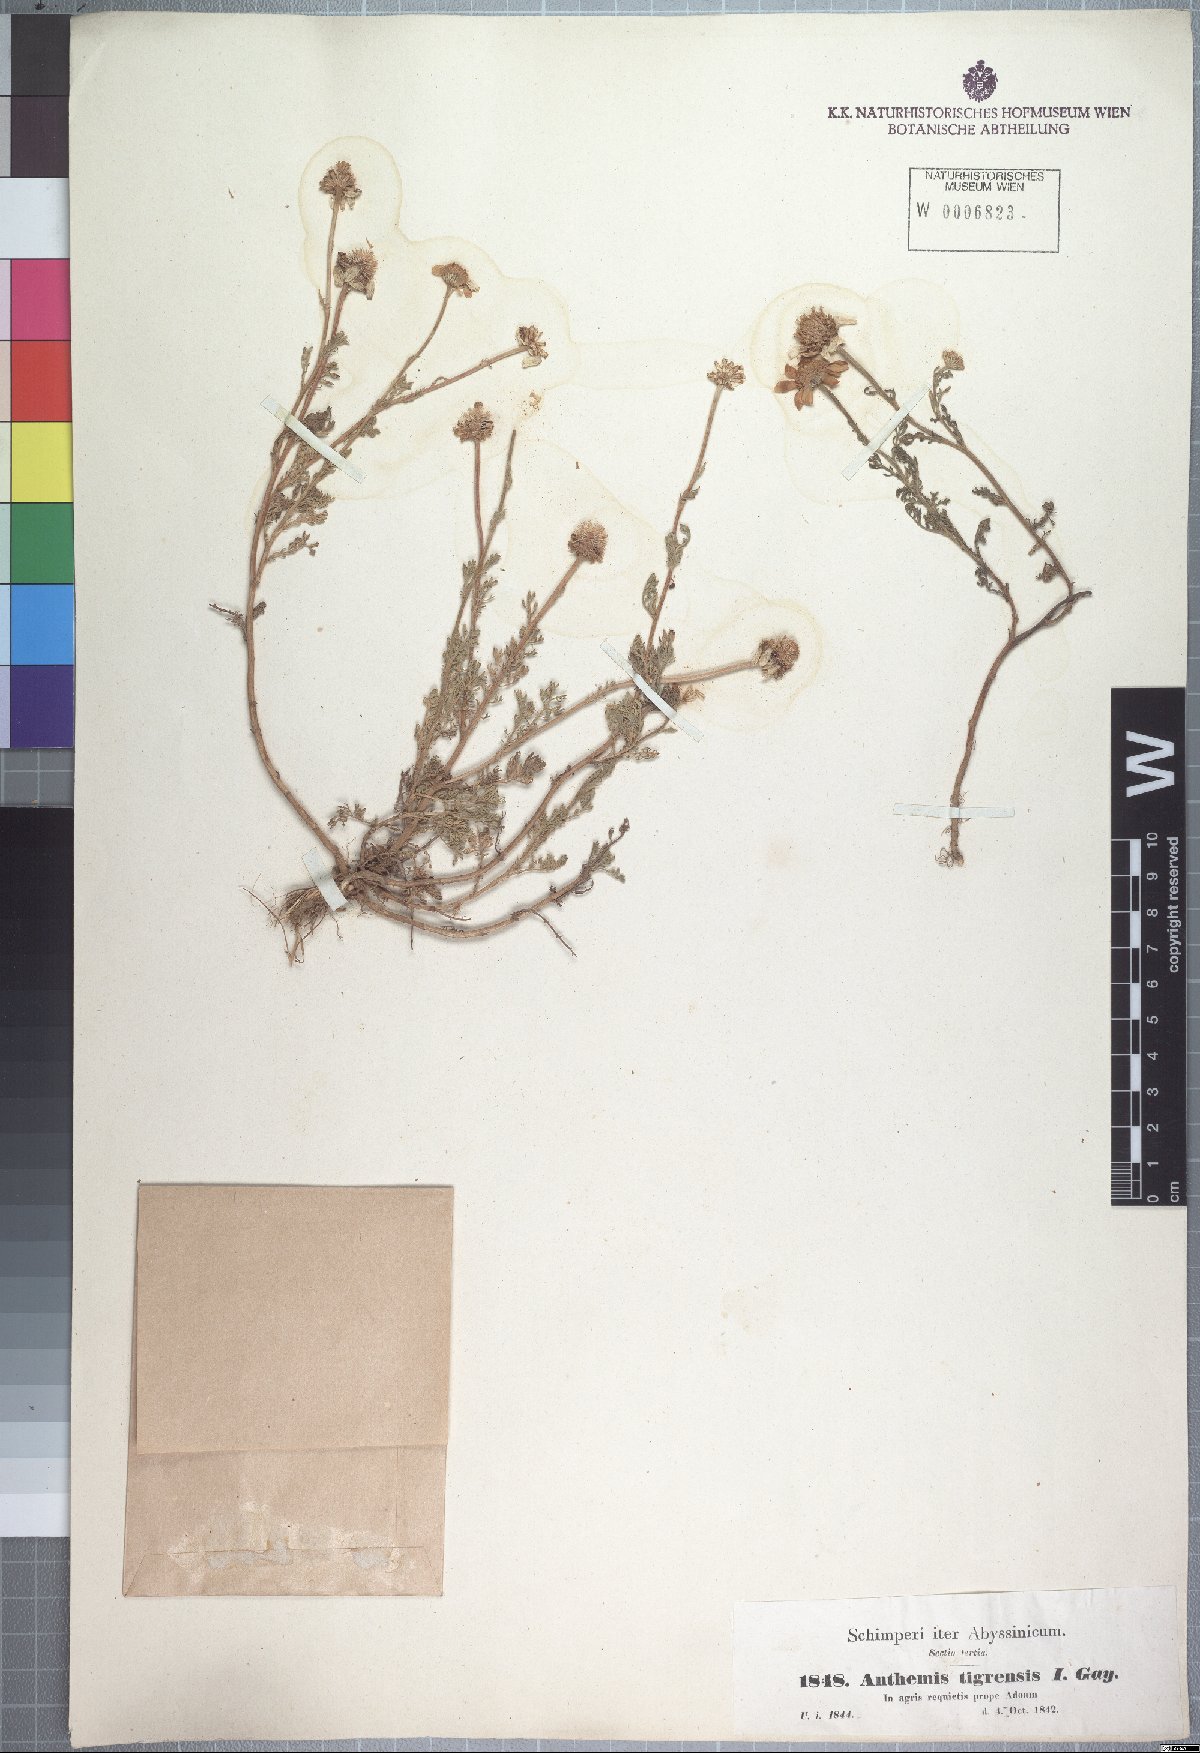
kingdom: Plantae
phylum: Tracheophyta
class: Magnoliopsida
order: Asterales
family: Asteraceae
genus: Anthemis
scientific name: Anthemis tigreensis
